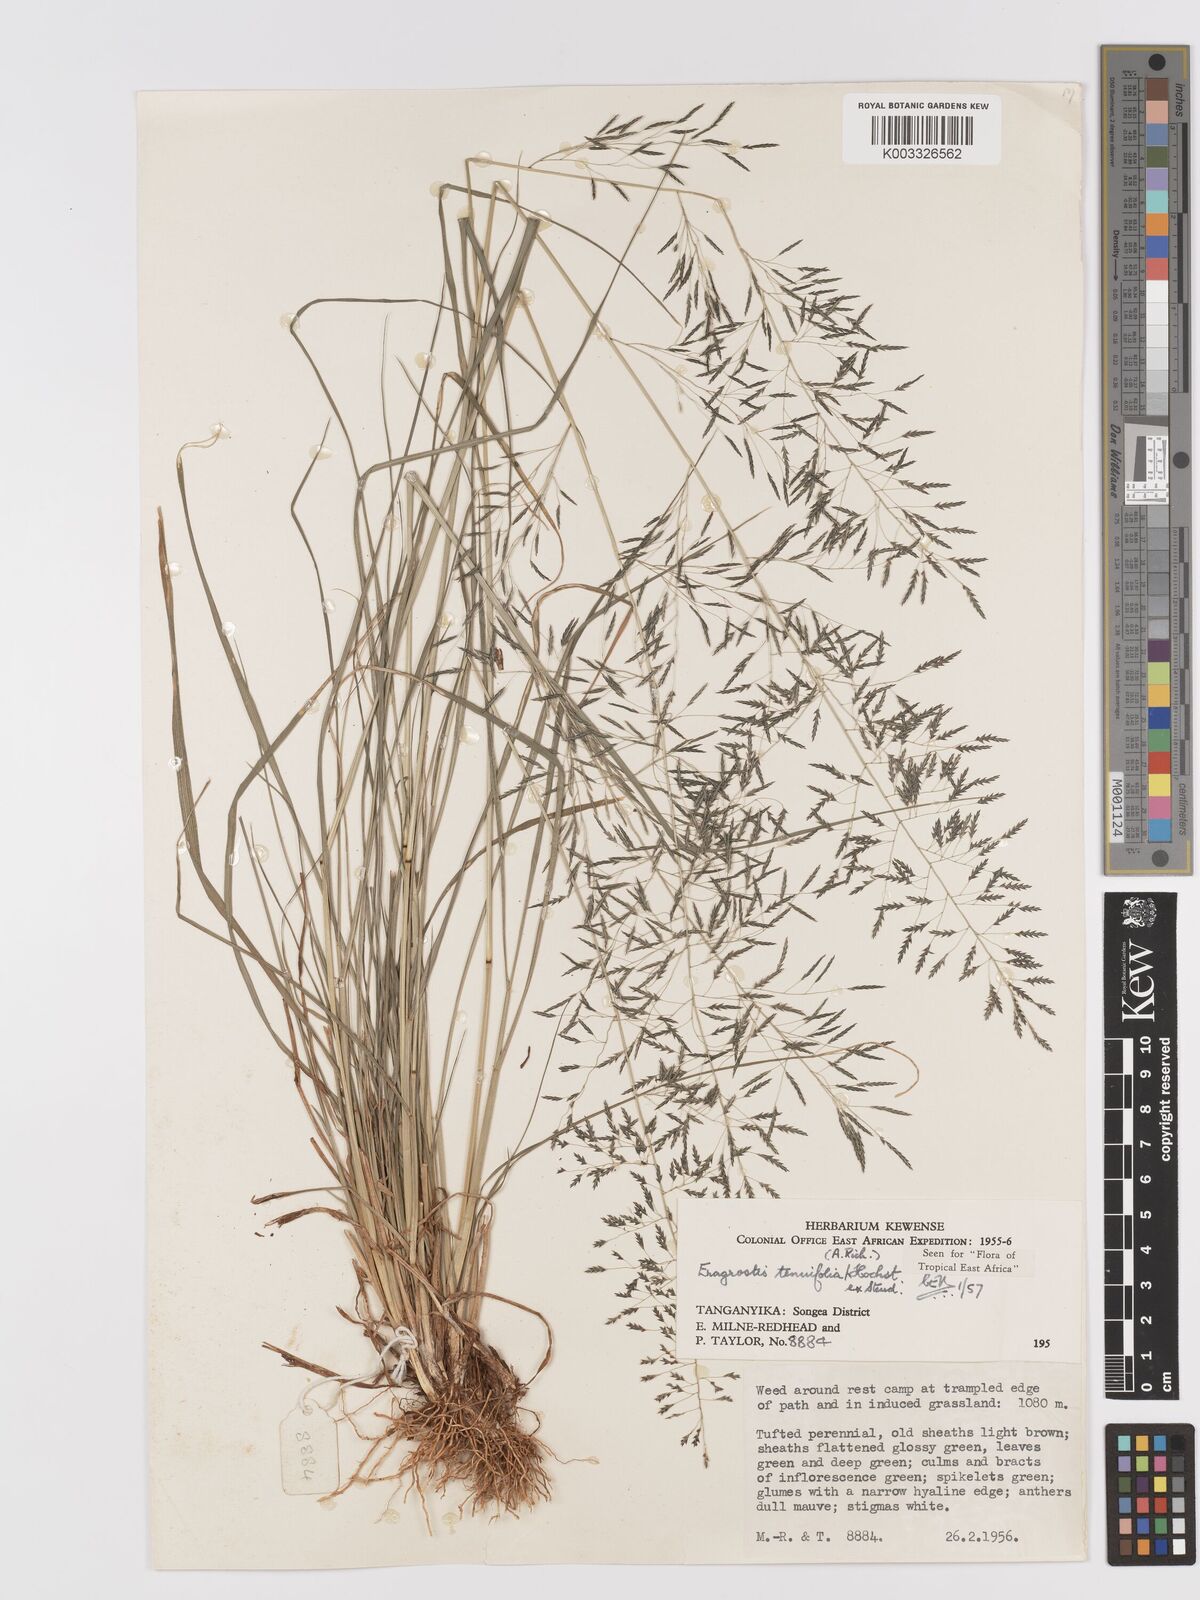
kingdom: Plantae
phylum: Tracheophyta
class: Liliopsida
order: Poales
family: Poaceae
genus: Eragrostis
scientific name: Eragrostis tenuifolia
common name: Elastic grass
